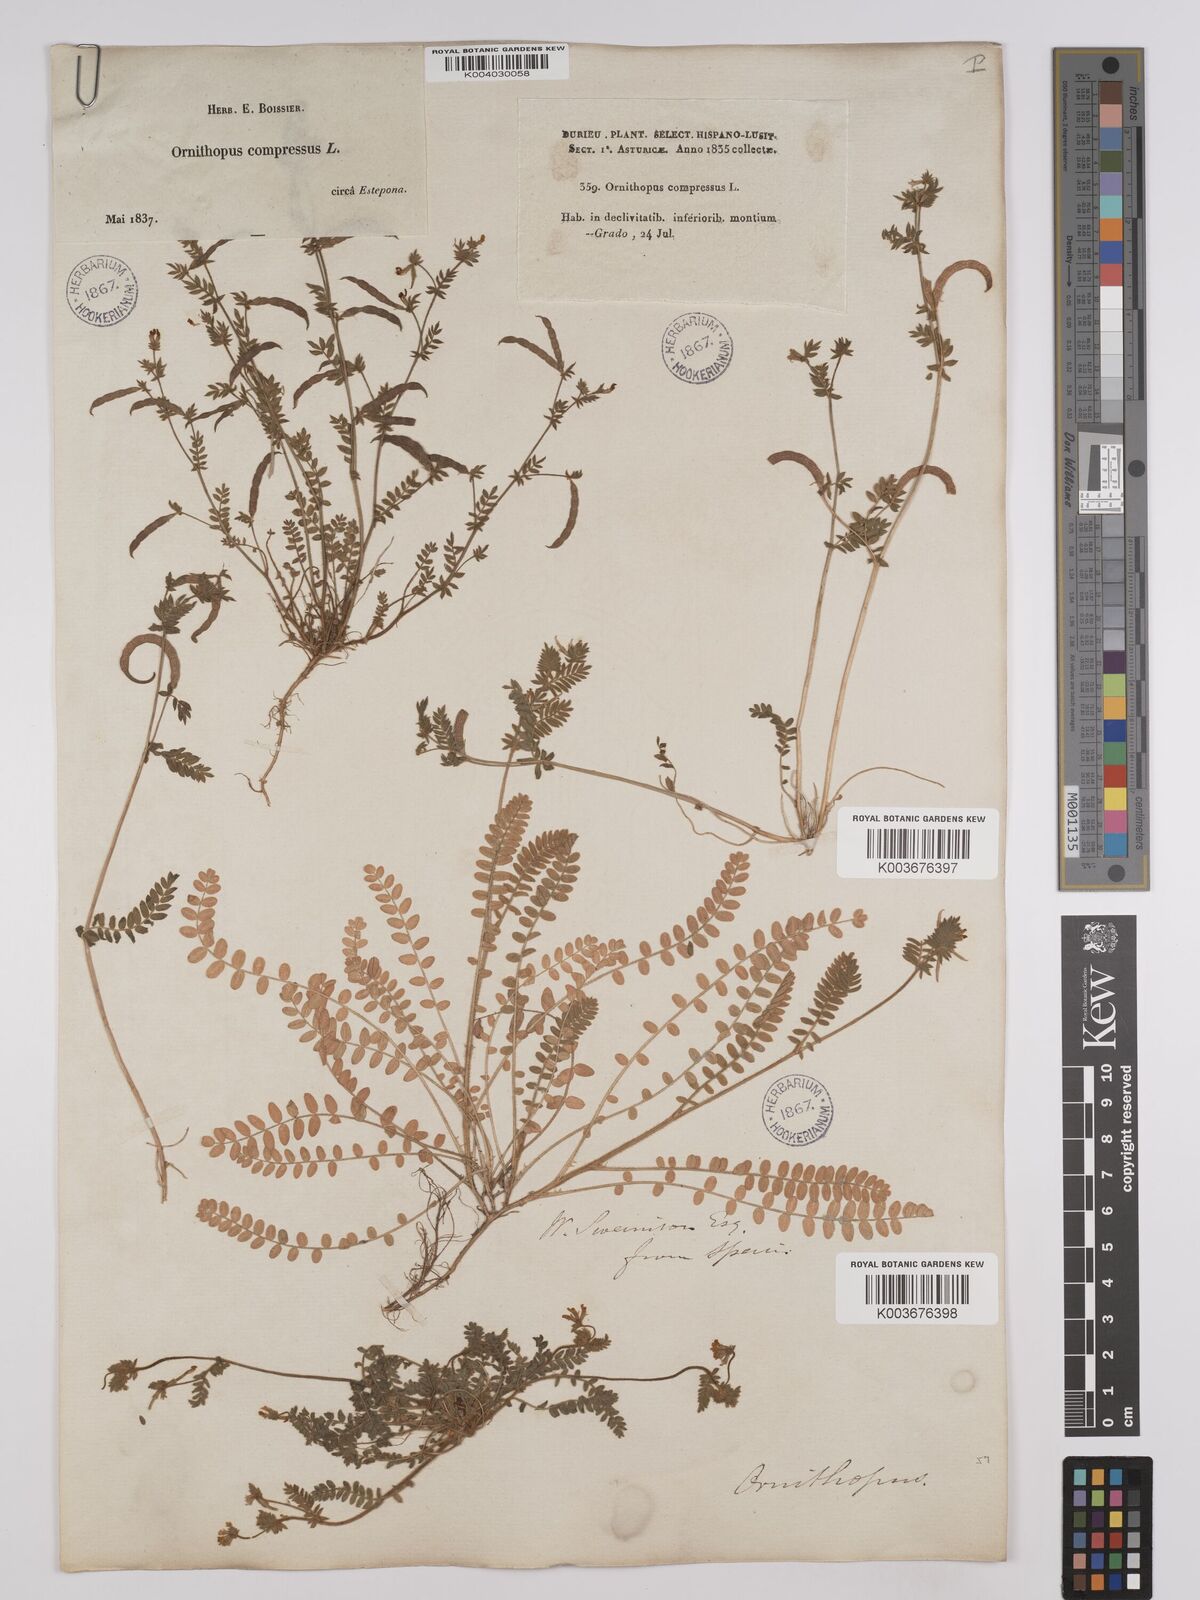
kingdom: Plantae
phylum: Tracheophyta
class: Magnoliopsida
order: Fabales
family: Fabaceae
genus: Ornithopus
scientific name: Ornithopus compressus
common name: Yellow serradella
